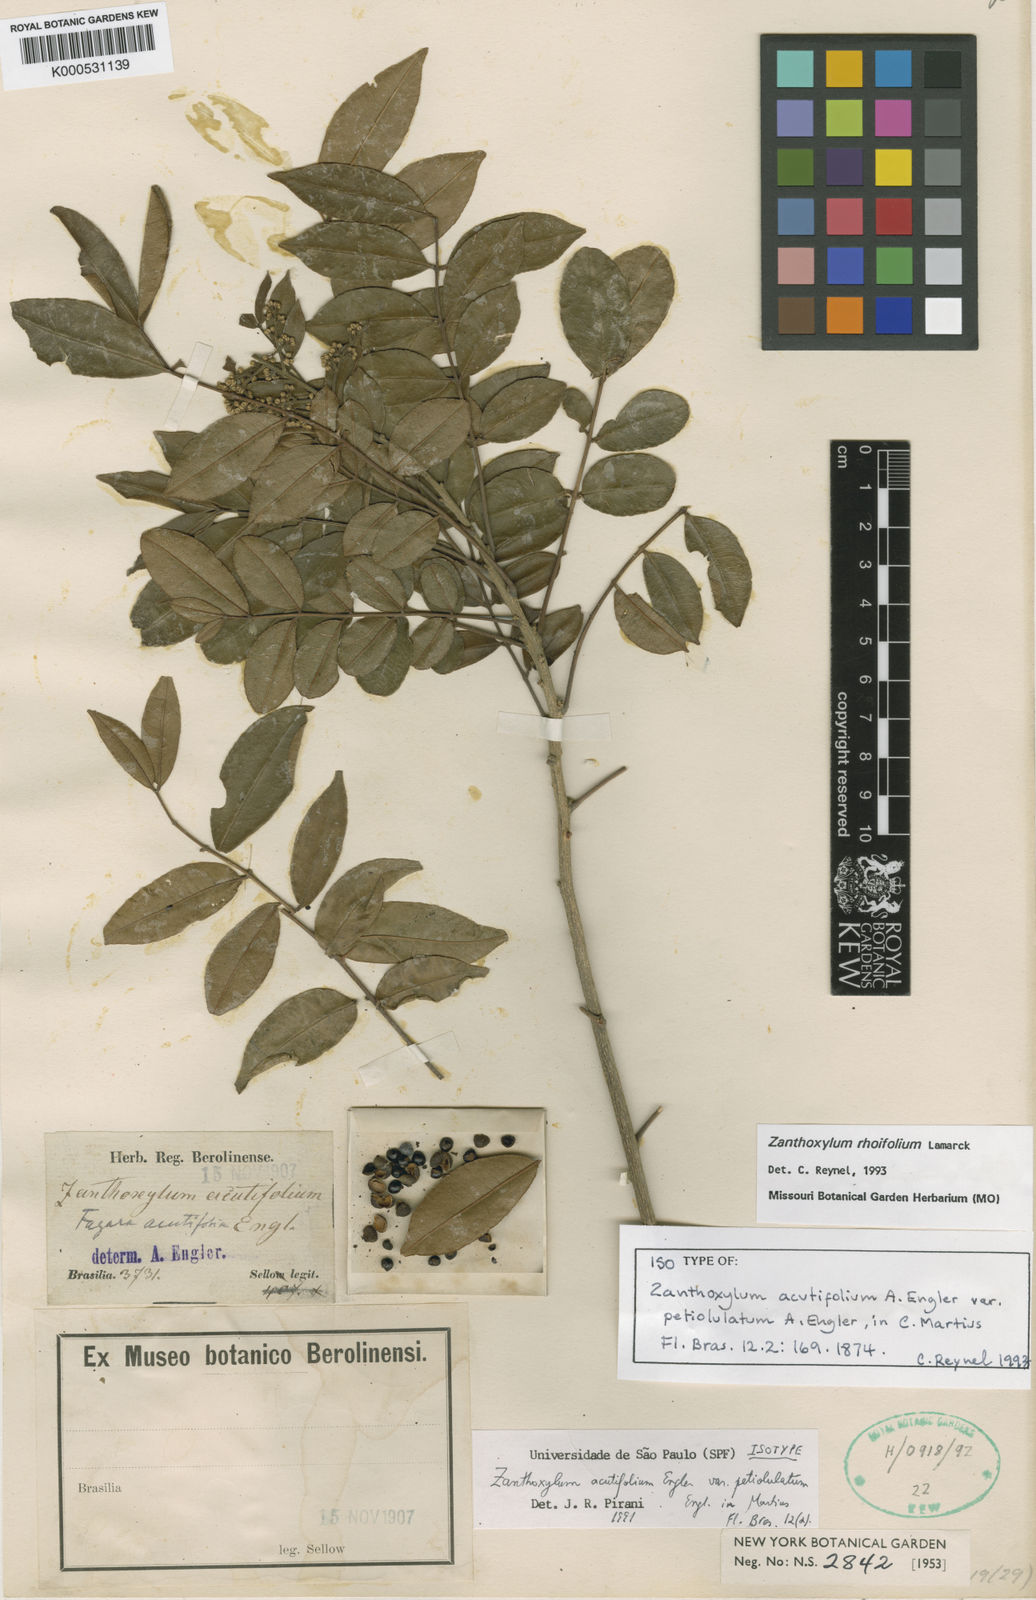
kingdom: Plantae
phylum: Tracheophyta
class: Magnoliopsida
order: Sapindales
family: Rutaceae
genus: Zanthoxylum
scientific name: Zanthoxylum rhoifolium
